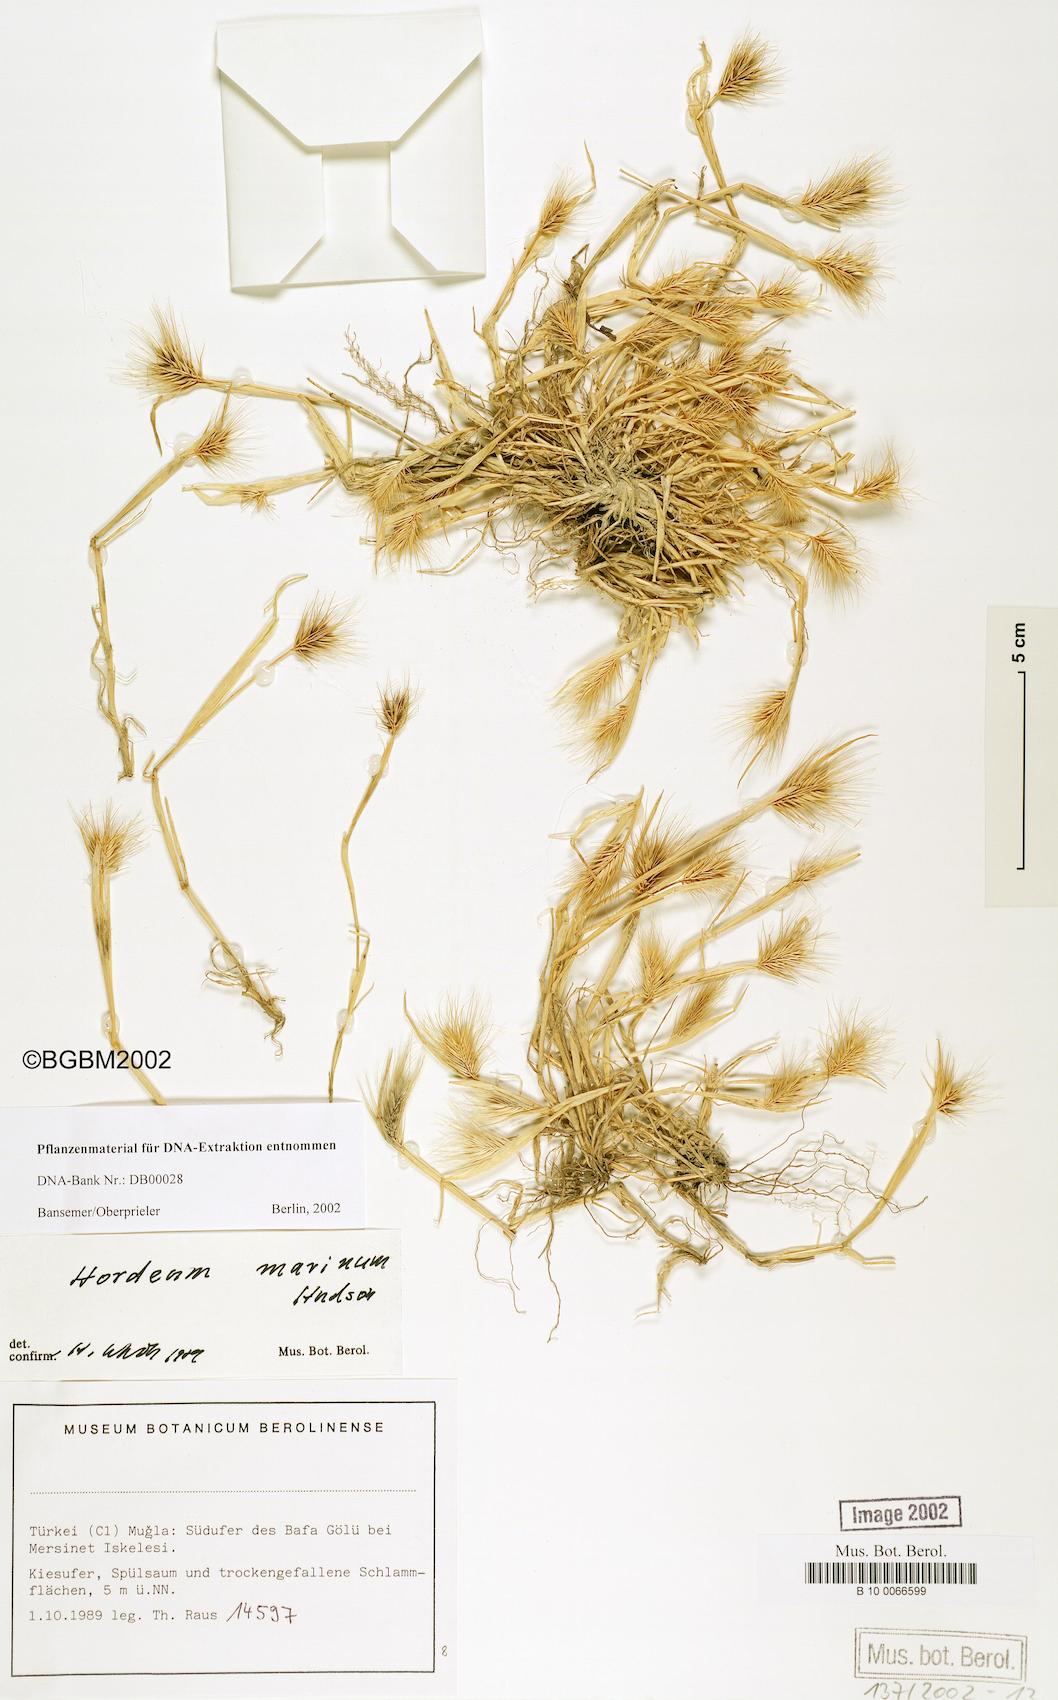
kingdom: Plantae
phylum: Tracheophyta
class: Liliopsida
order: Poales
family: Poaceae
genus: Hordeum
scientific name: Hordeum marinum
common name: Sea barley
